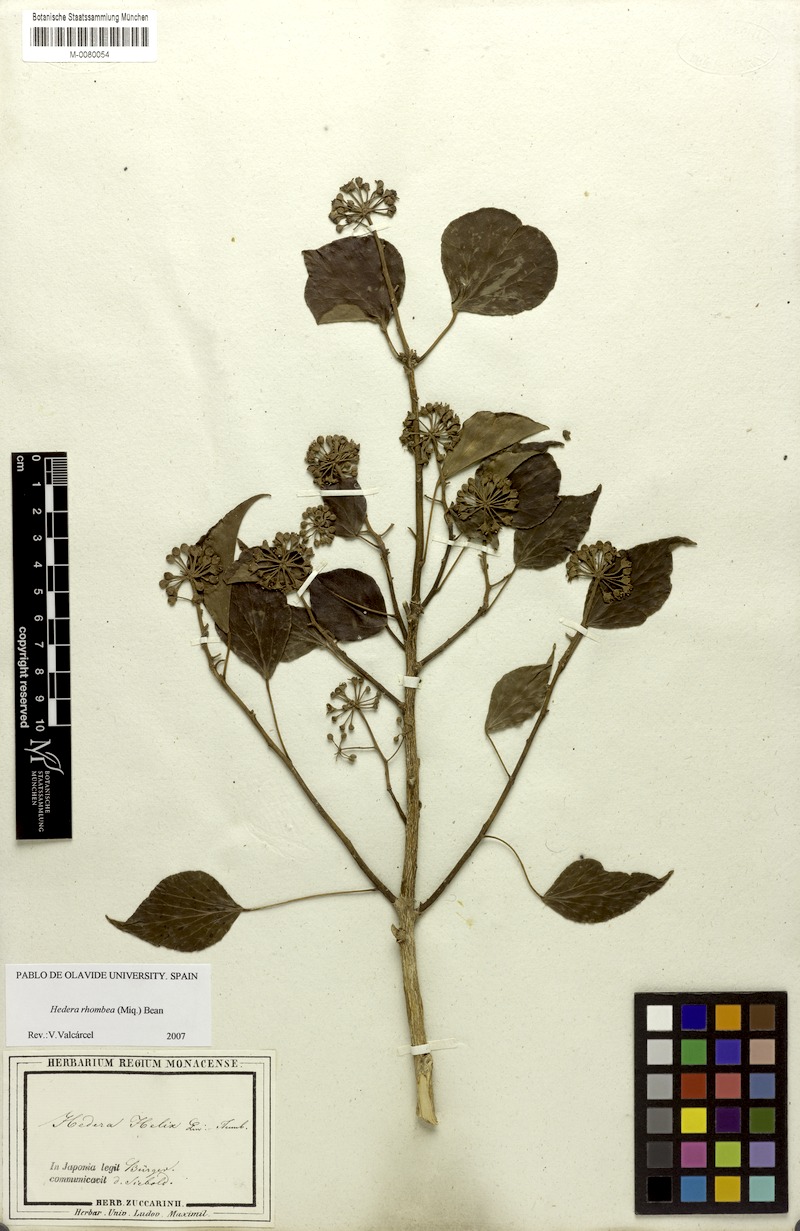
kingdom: Plantae
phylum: Tracheophyta
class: Magnoliopsida
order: Apiales
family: Araliaceae
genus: Hedera
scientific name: Hedera rhombea
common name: Japanese ivy
